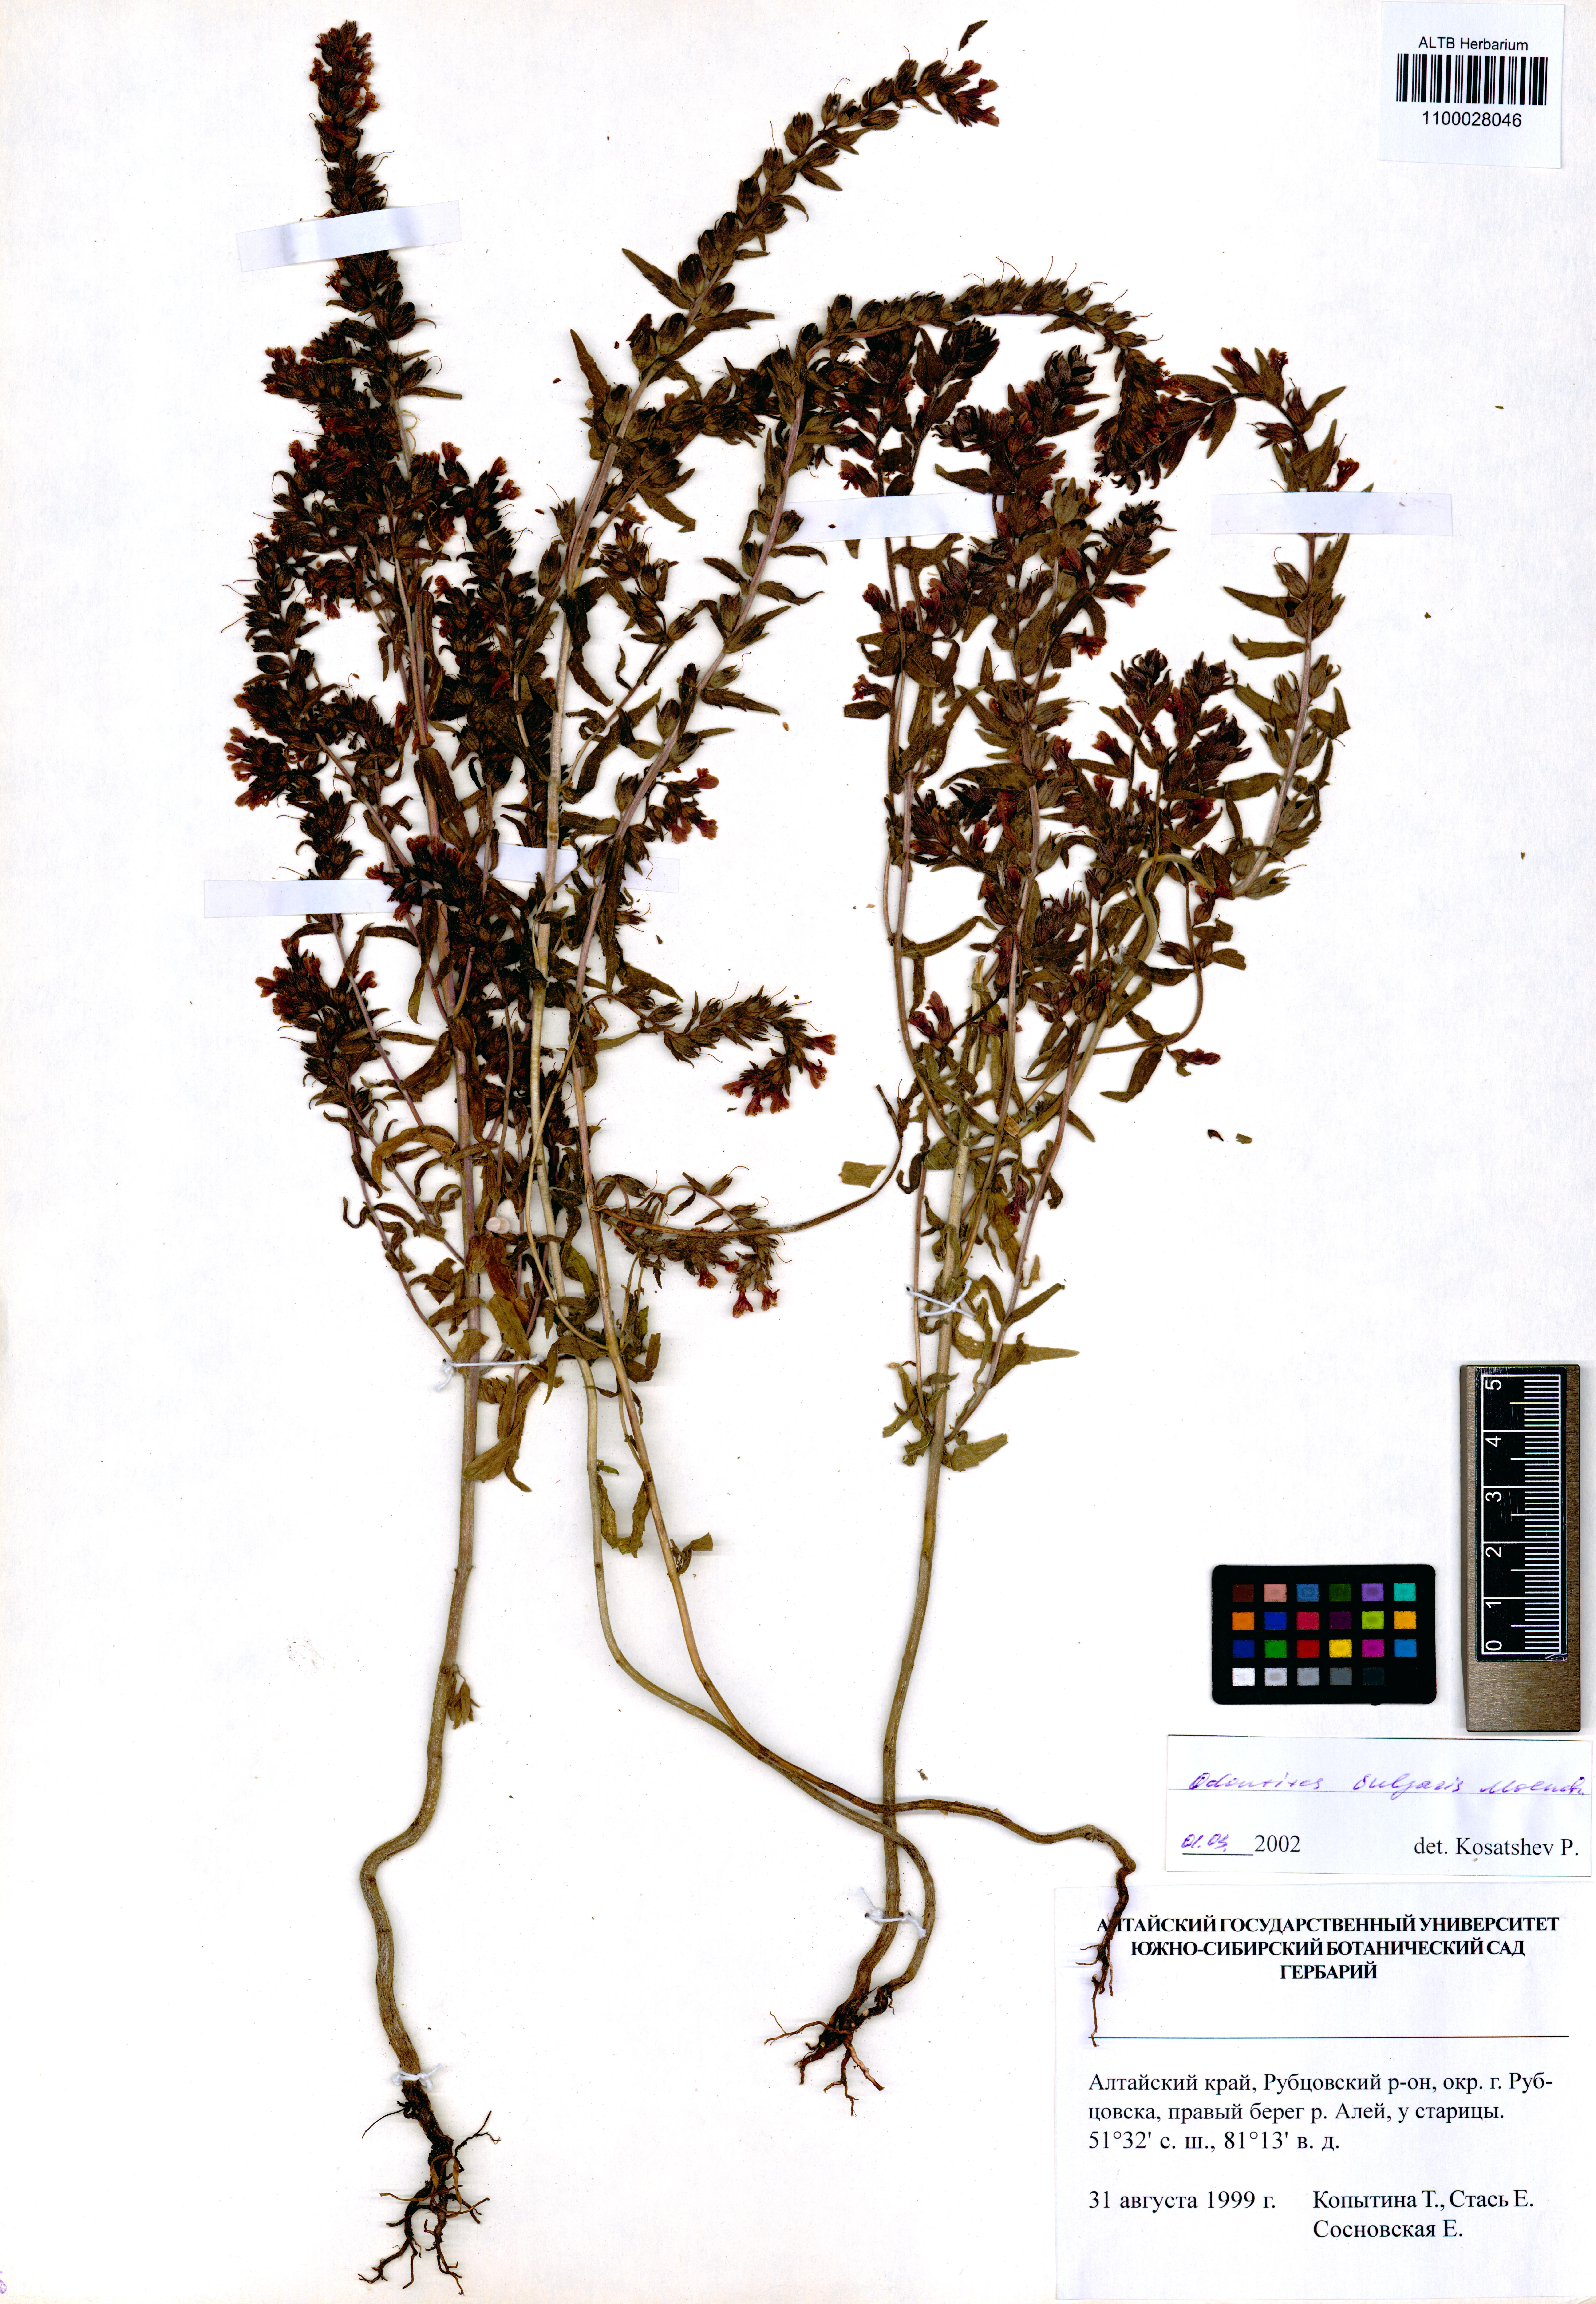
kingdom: Plantae
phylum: Tracheophyta
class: Magnoliopsida
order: Lamiales
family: Orobanchaceae
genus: Odontites
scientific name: Odontites vulgaris
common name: Broomrape
